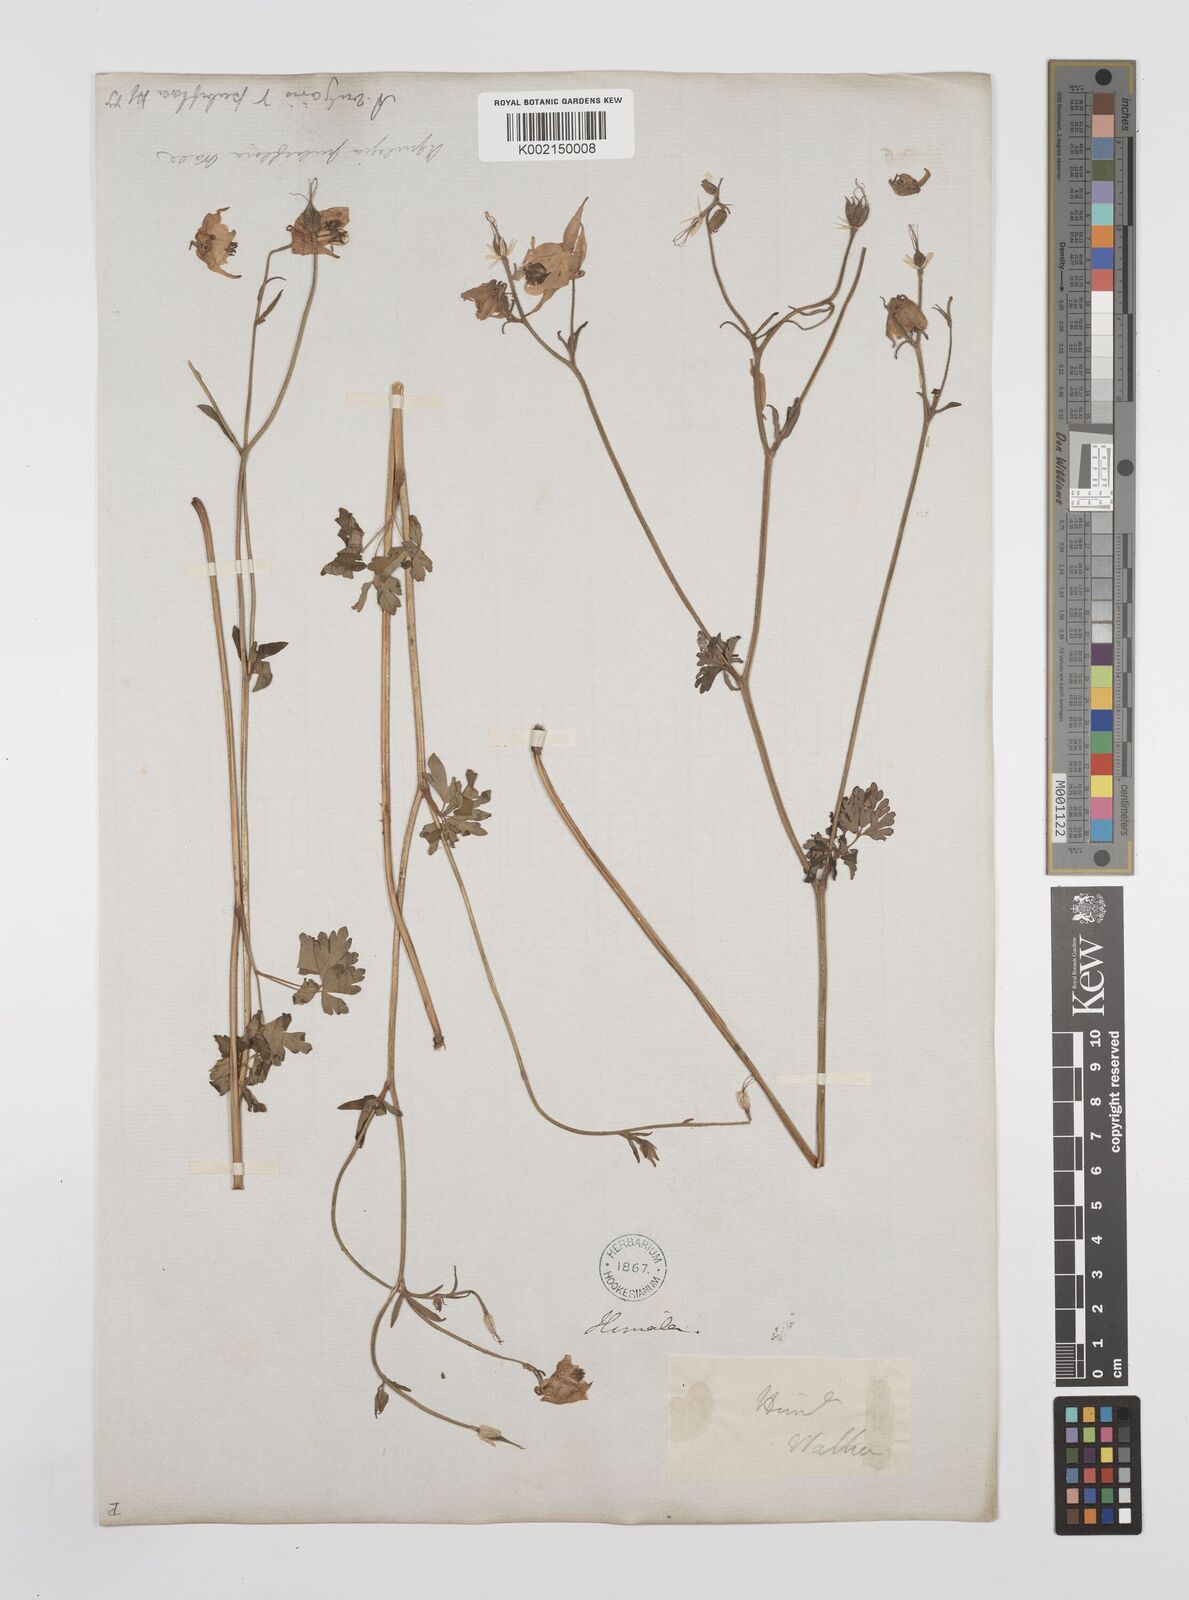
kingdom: Plantae
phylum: Tracheophyta
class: Magnoliopsida
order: Ranunculales
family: Ranunculaceae
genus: Aquilegia
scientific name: Aquilegia pubiflora
